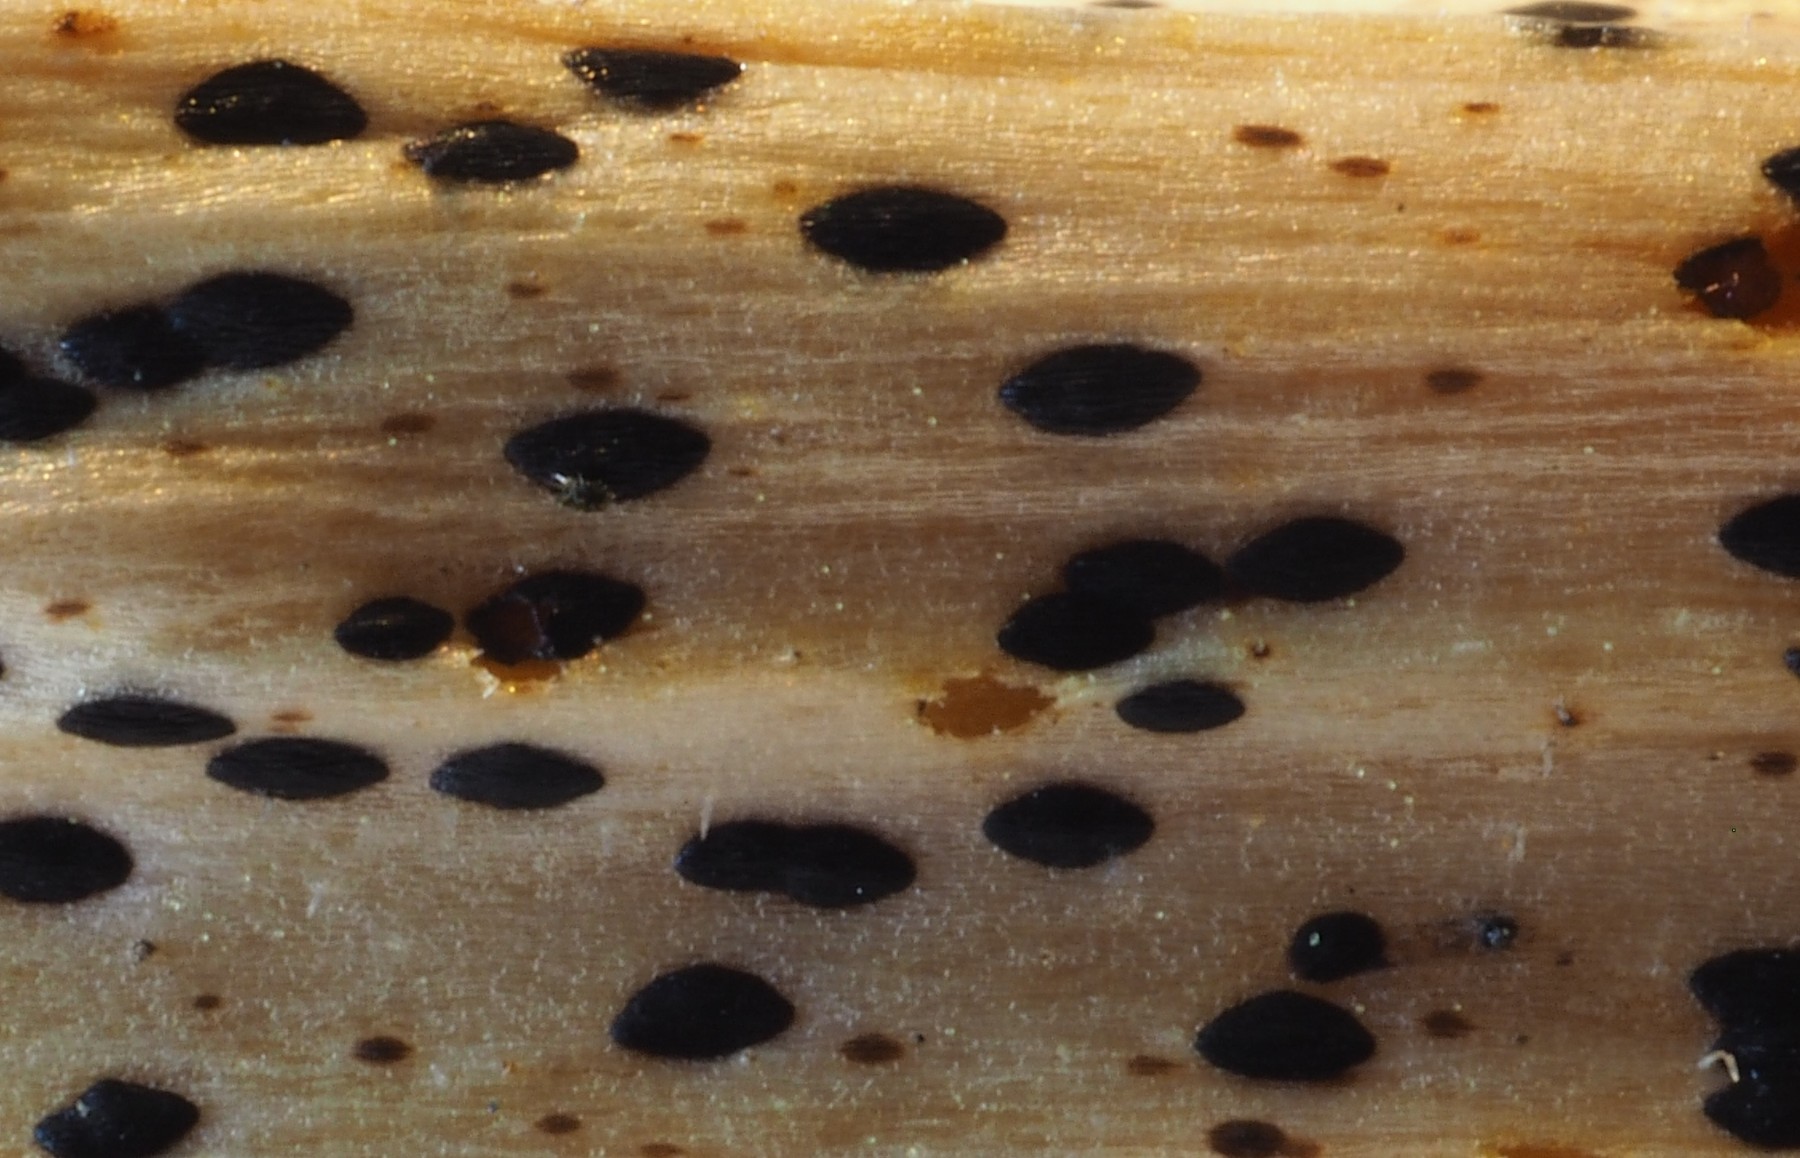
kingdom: Fungi
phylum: Ascomycota
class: Leotiomycetes
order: Rhytismatales
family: Rhytismataceae
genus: Lophodermium
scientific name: Lophodermium paeoniae
